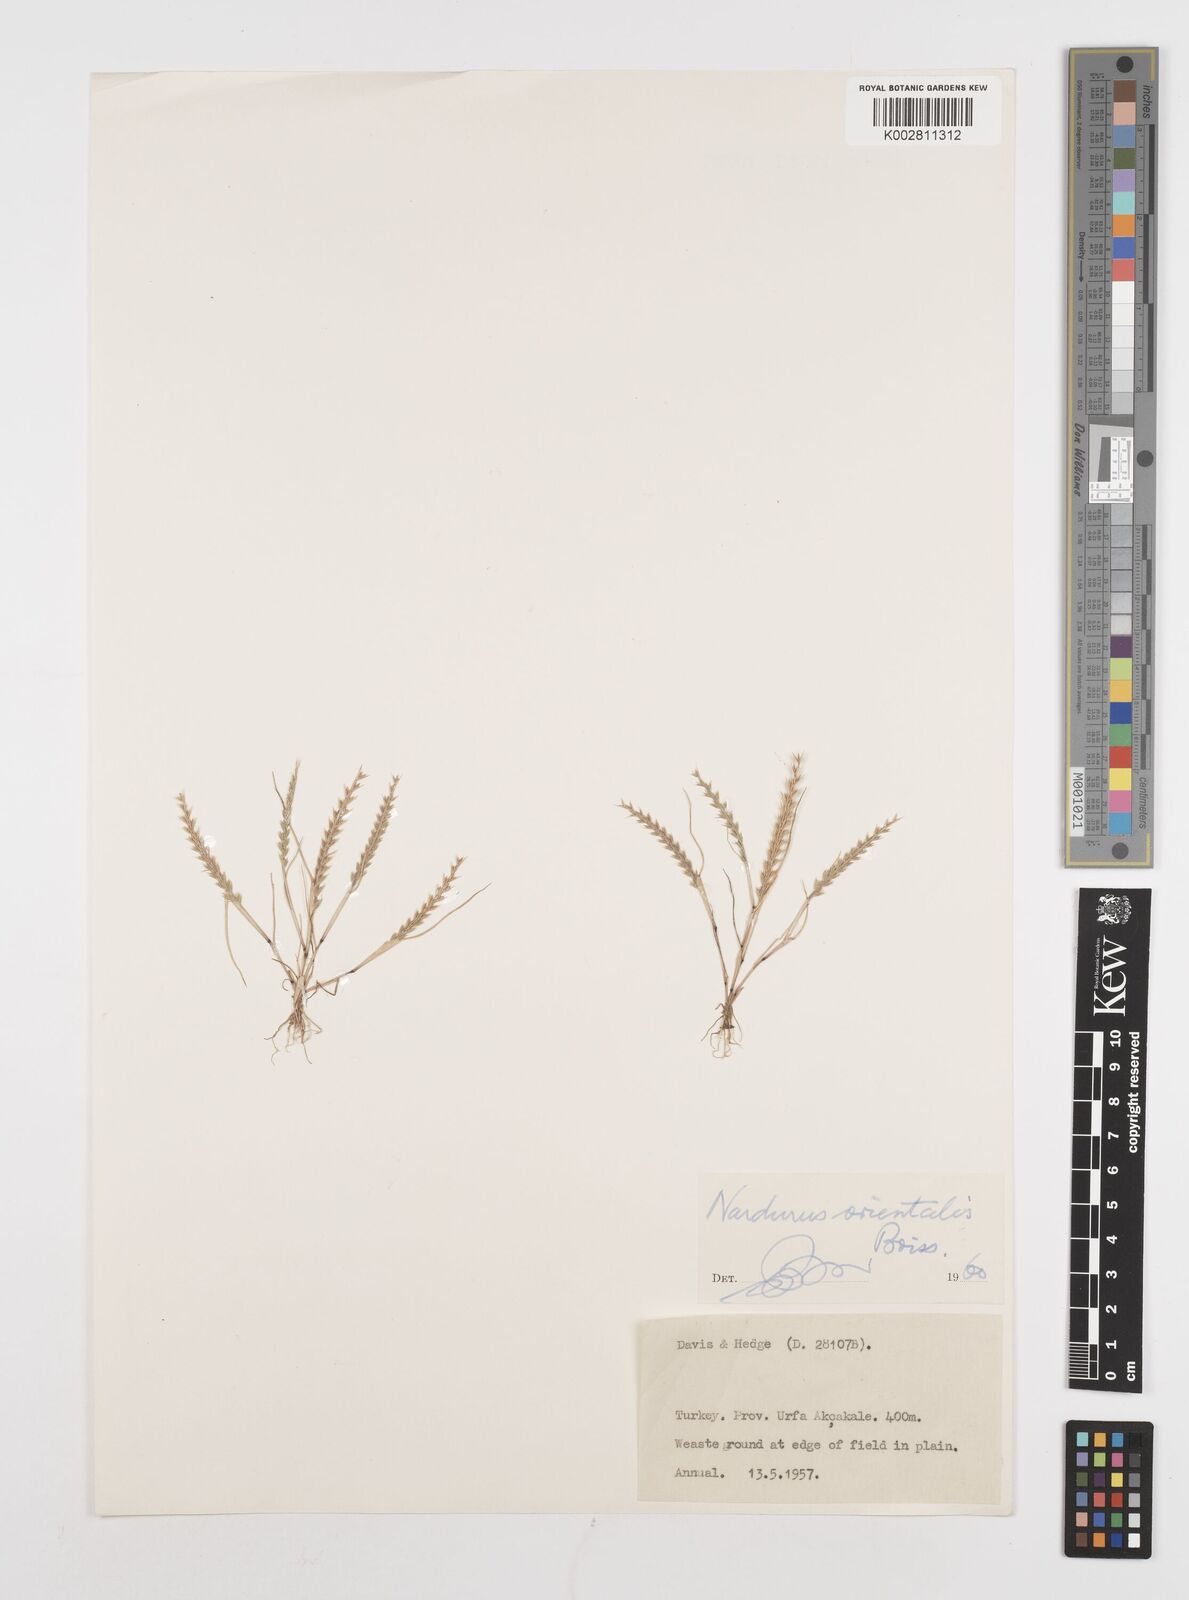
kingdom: Plantae
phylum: Tracheophyta
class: Liliopsida
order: Poales
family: Poaceae
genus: Festuca
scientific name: Festuca orientalis
